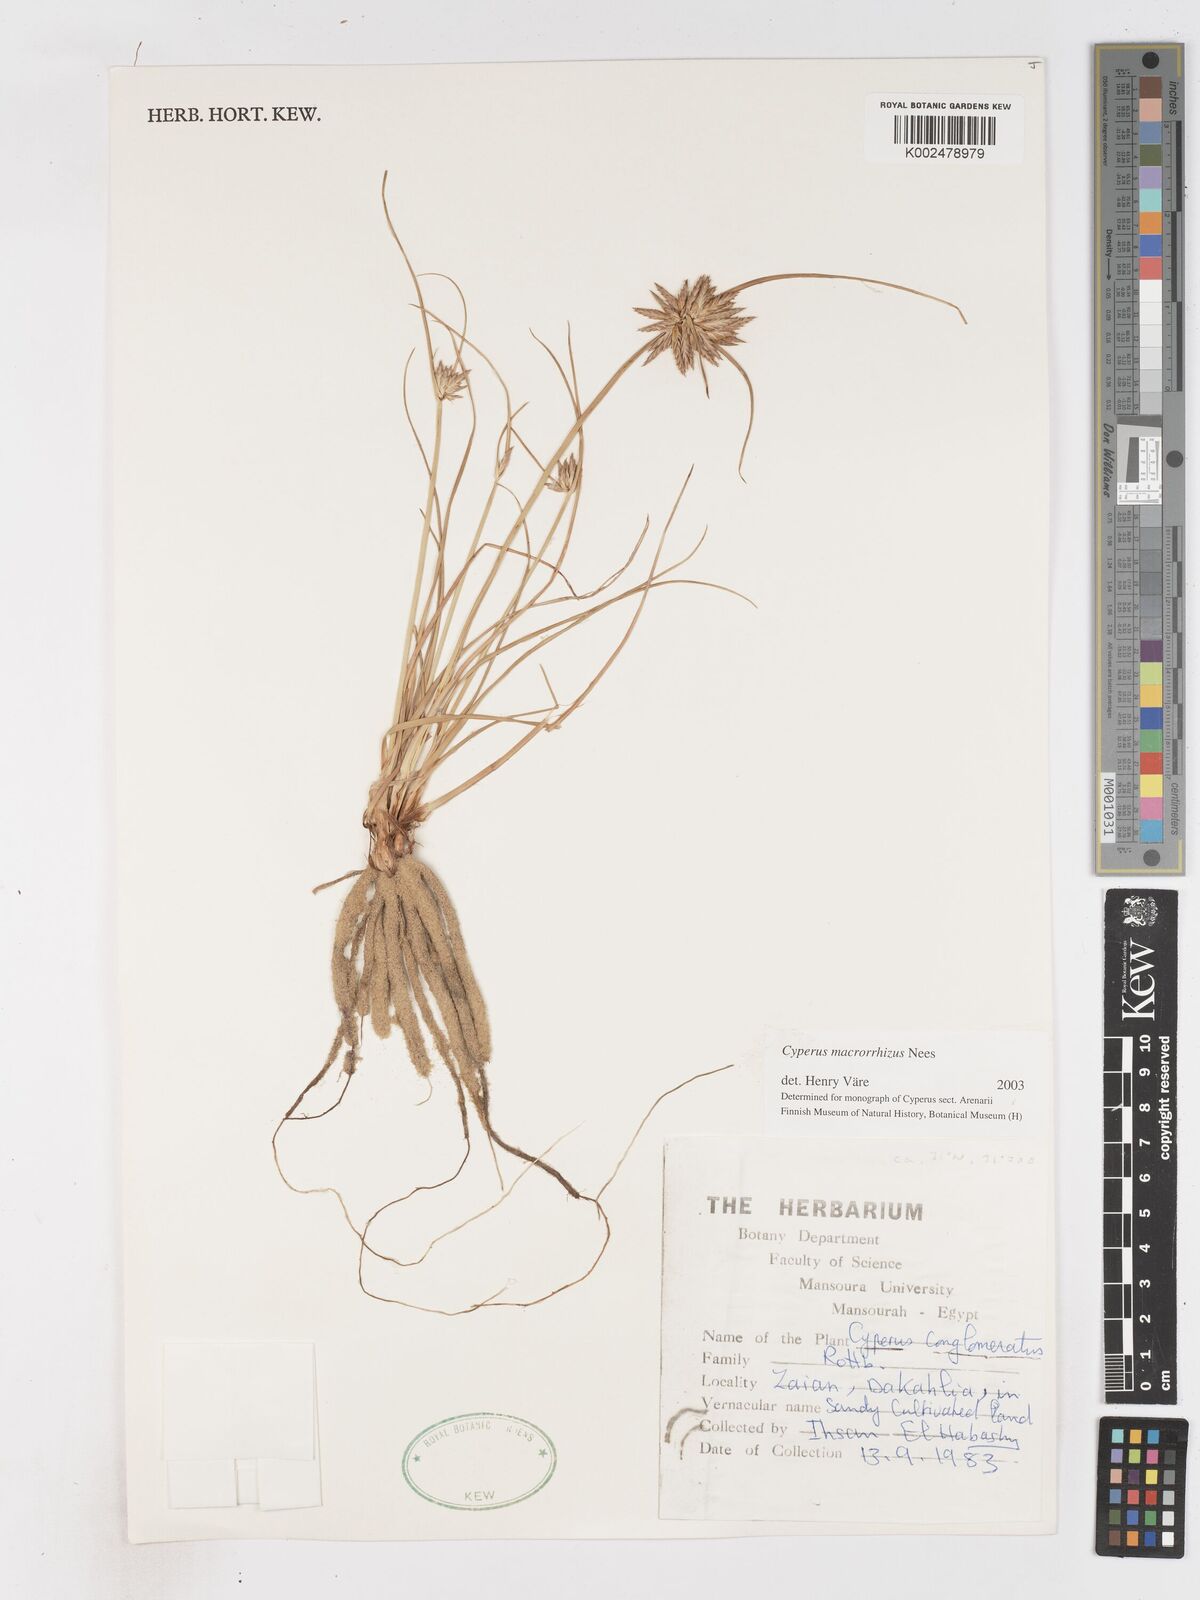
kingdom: Plantae
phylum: Tracheophyta
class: Liliopsida
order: Poales
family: Cyperaceae
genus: Cyperus
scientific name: Cyperus macrorrhizus
